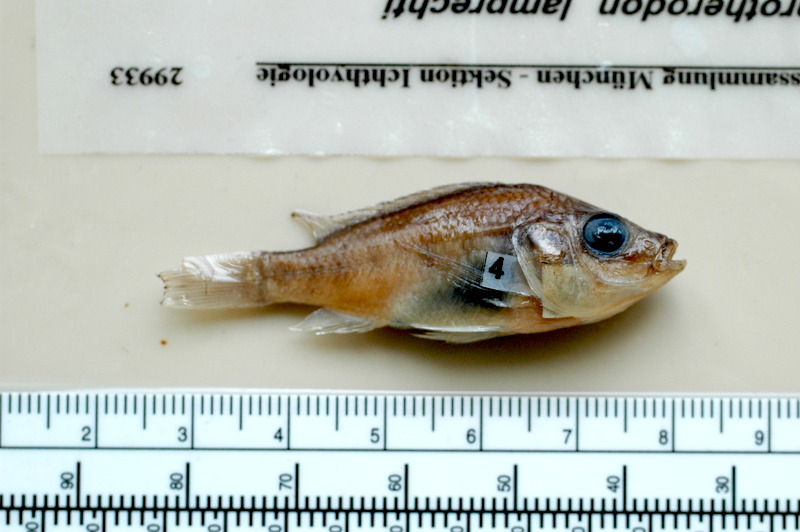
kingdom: Animalia
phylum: Chordata
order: Perciformes
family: Cichlidae
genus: Sarotherodon
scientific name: Sarotherodon lamprechti
